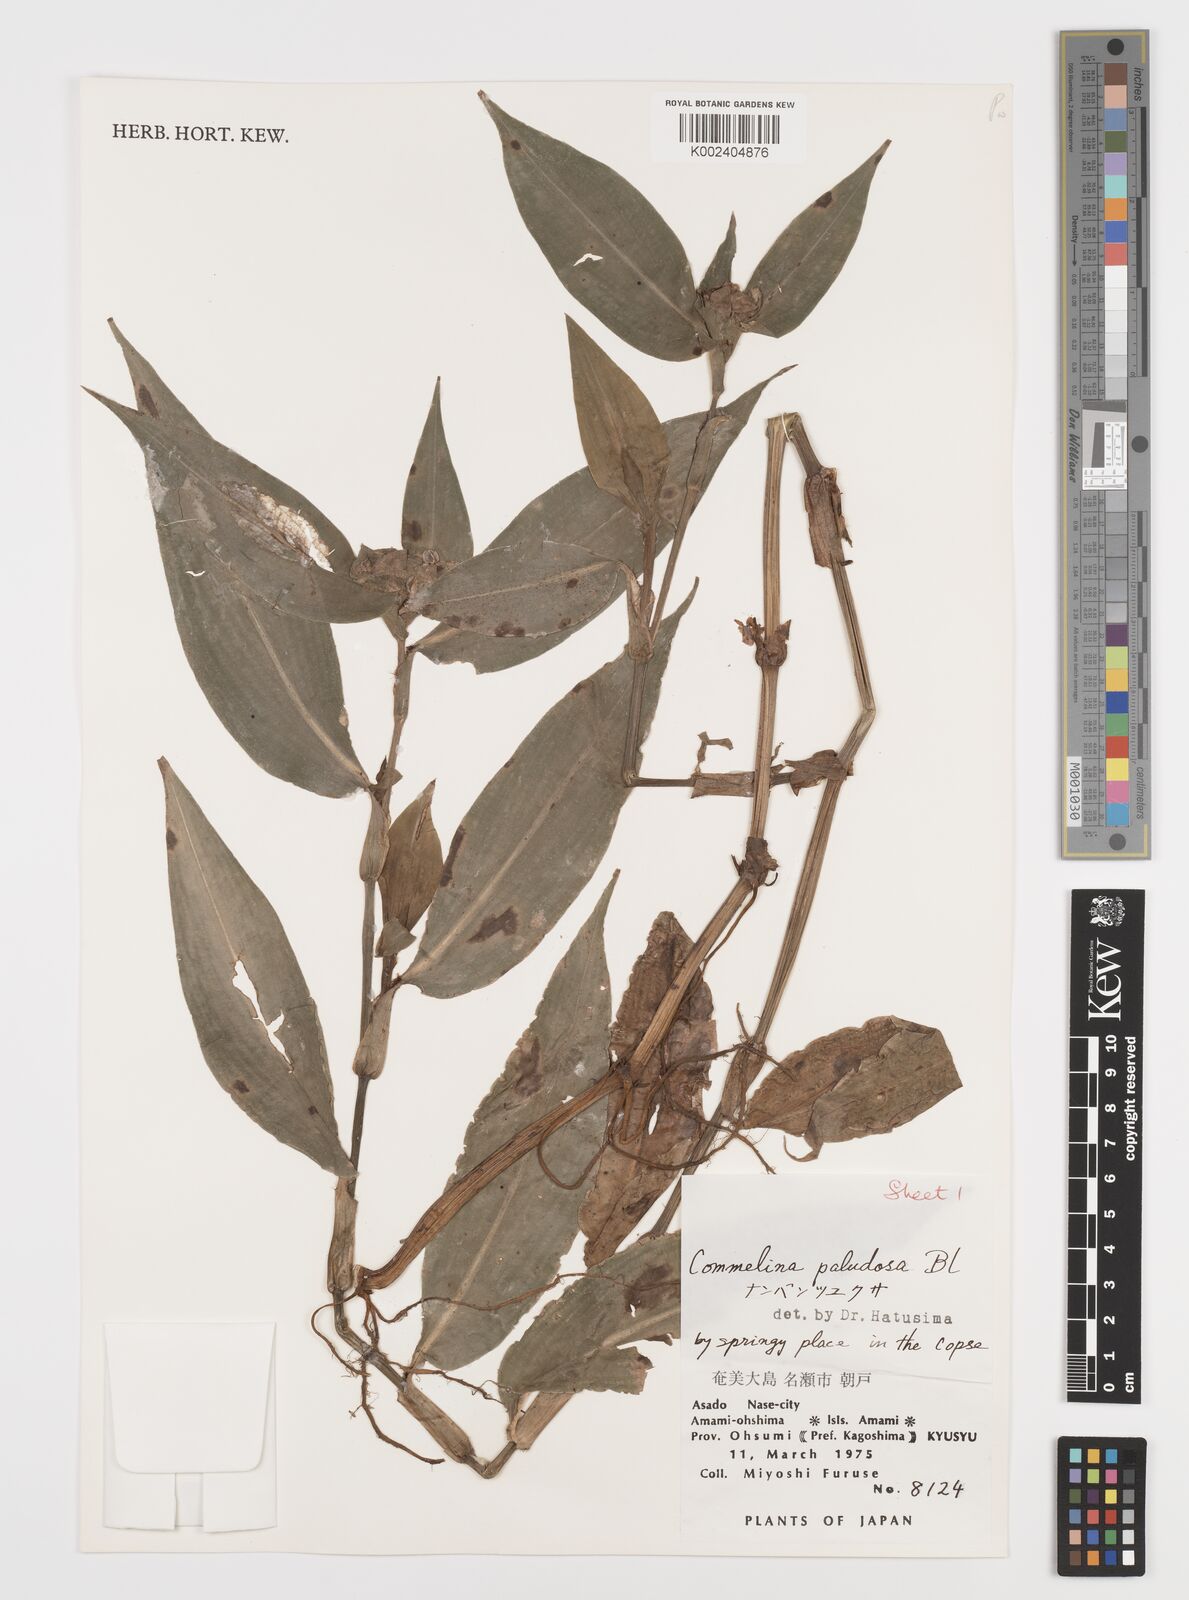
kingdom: Plantae
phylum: Tracheophyta
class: Liliopsida
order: Commelinales
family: Commelinaceae
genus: Commelina
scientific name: Commelina paludosa
